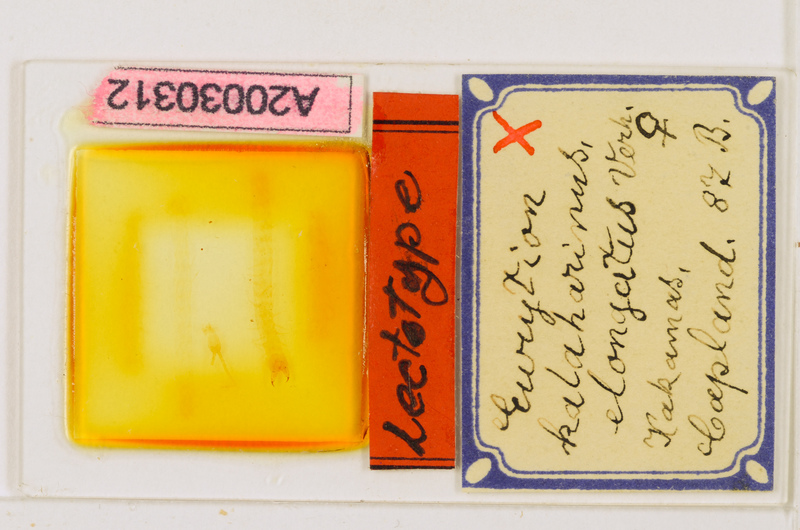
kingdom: Animalia
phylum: Arthropoda
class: Chilopoda
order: Geophilomorpha
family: Geophilidae
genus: Eurytion
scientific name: Eurytion kalaharinus
